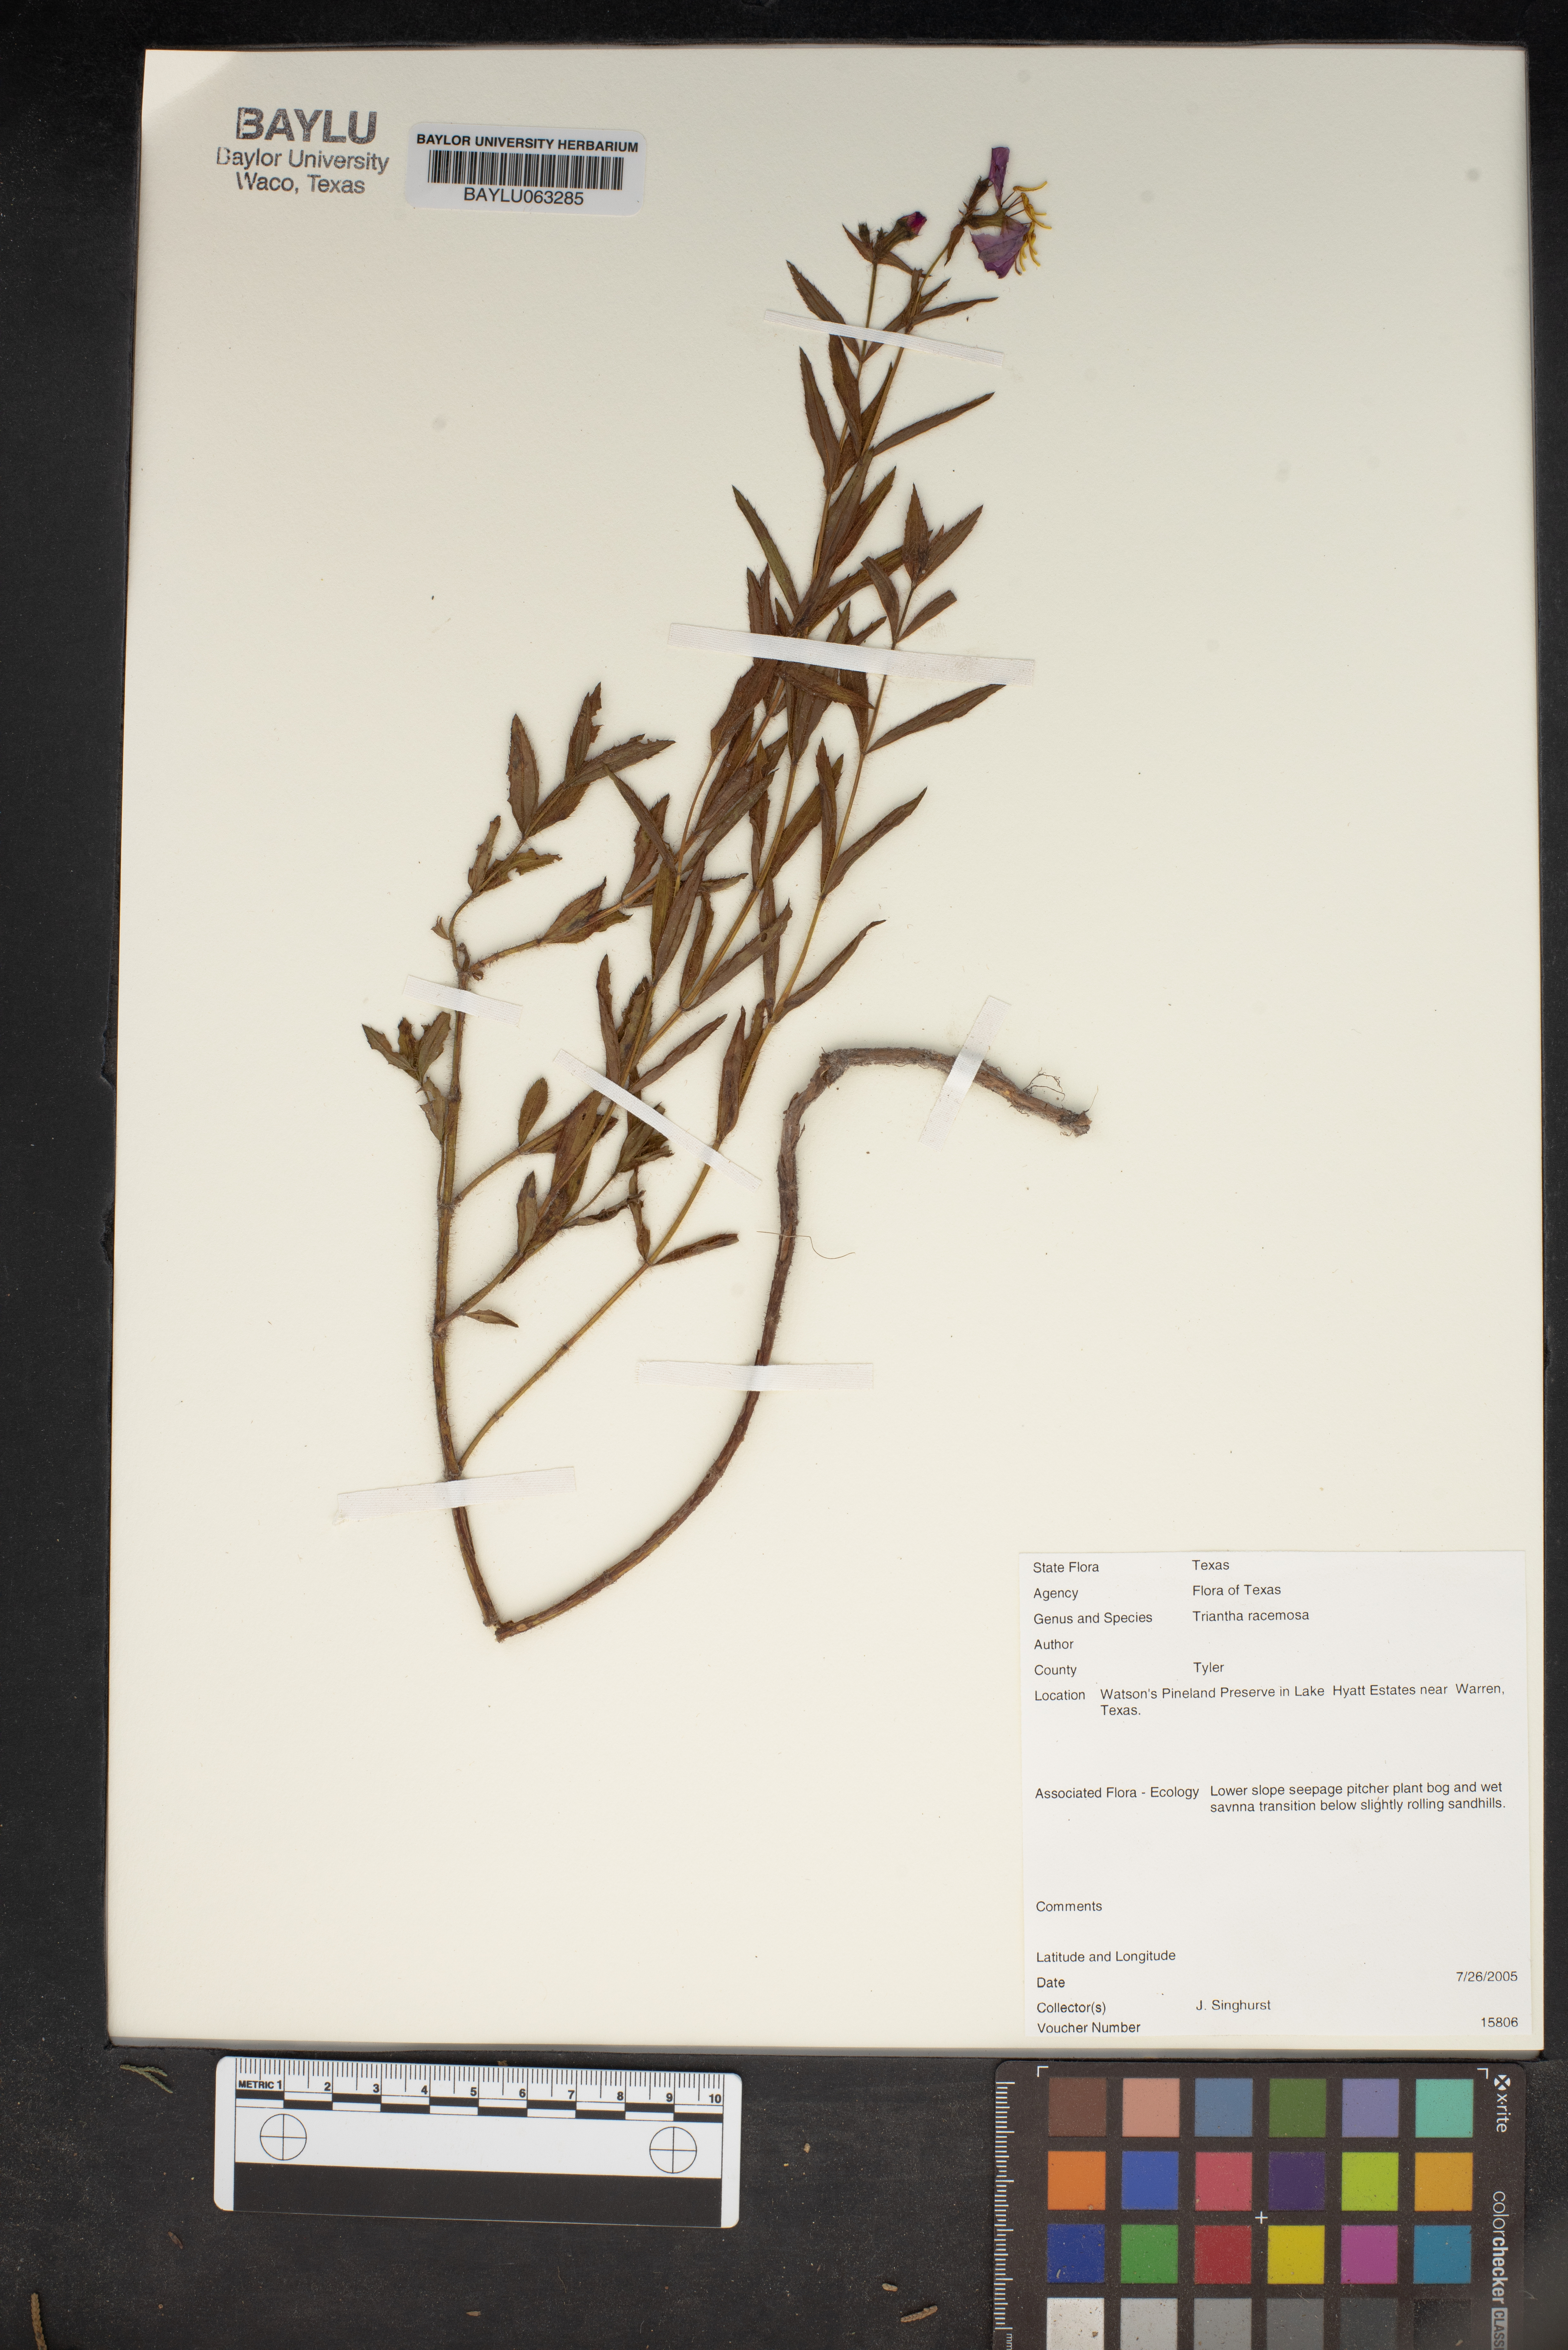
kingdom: Plantae
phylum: Tracheophyta
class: Liliopsida
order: Alismatales
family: Tofieldiaceae
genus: Triantha
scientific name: Triantha racemosa
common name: Coastal false asphodel
